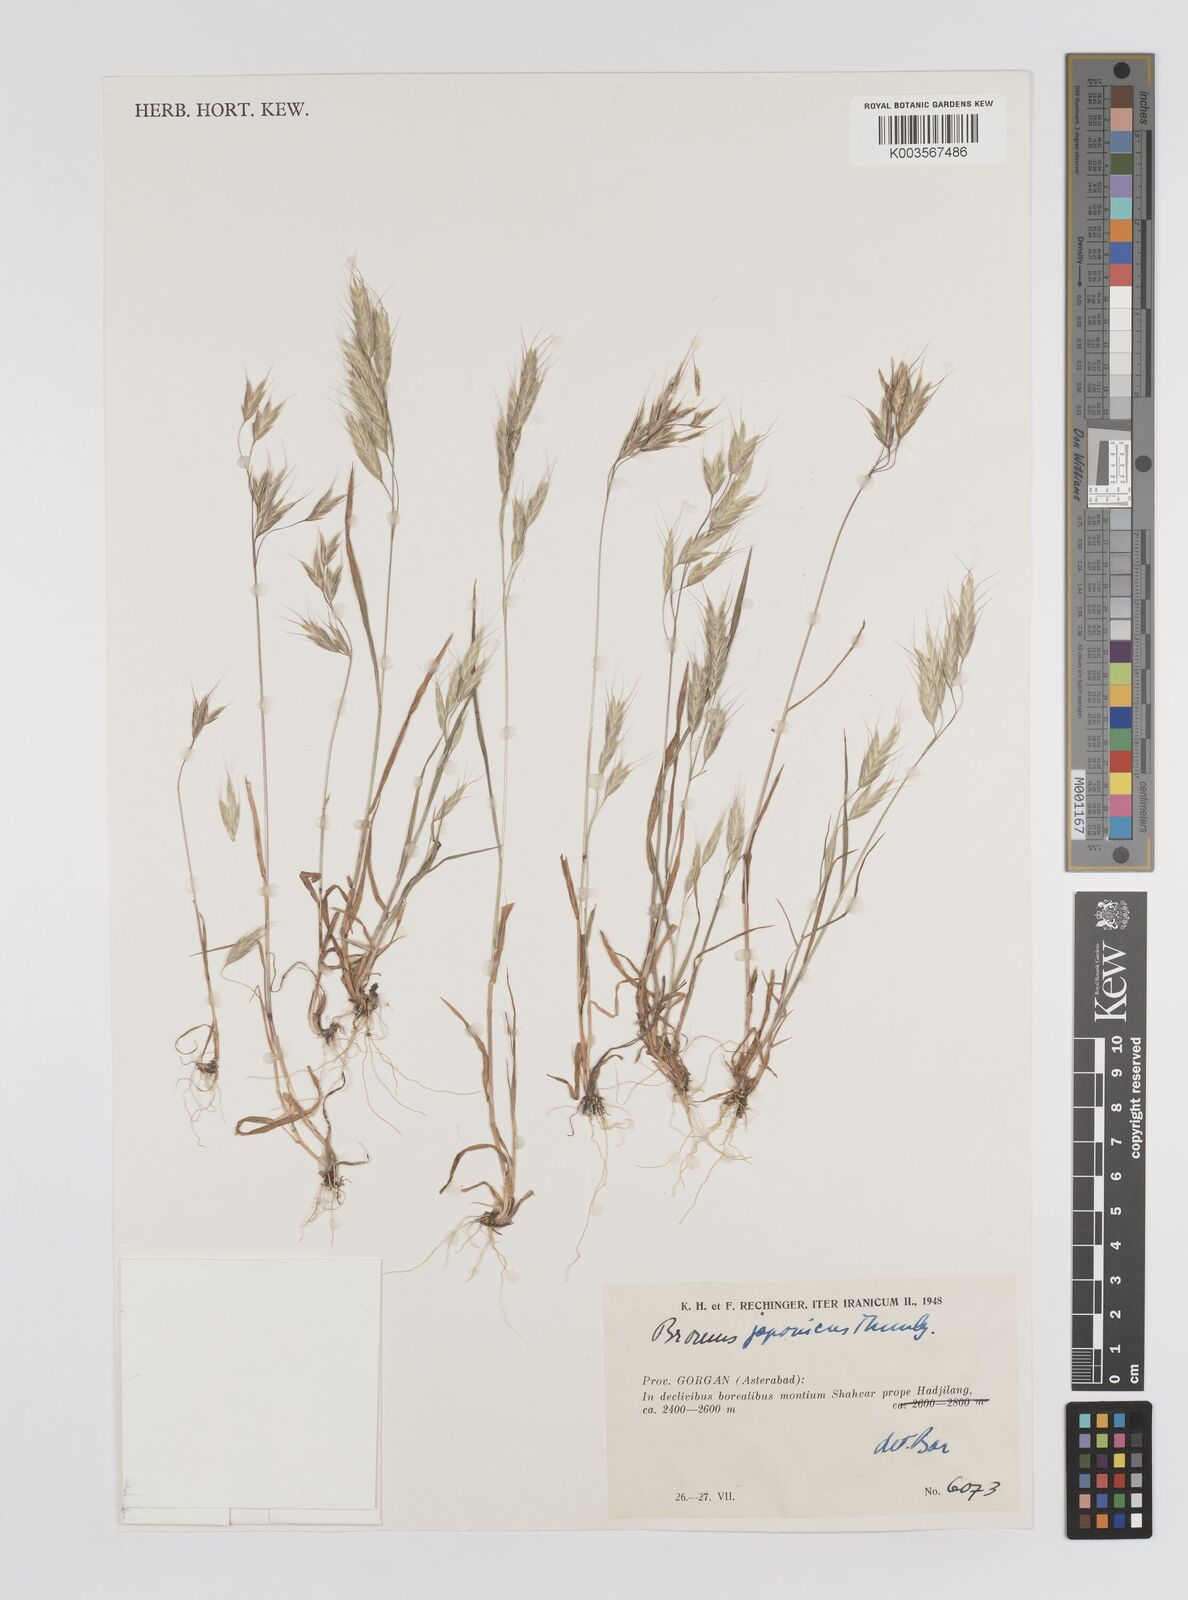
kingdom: Plantae
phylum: Tracheophyta
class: Liliopsida
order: Poales
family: Poaceae
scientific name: Poaceae
